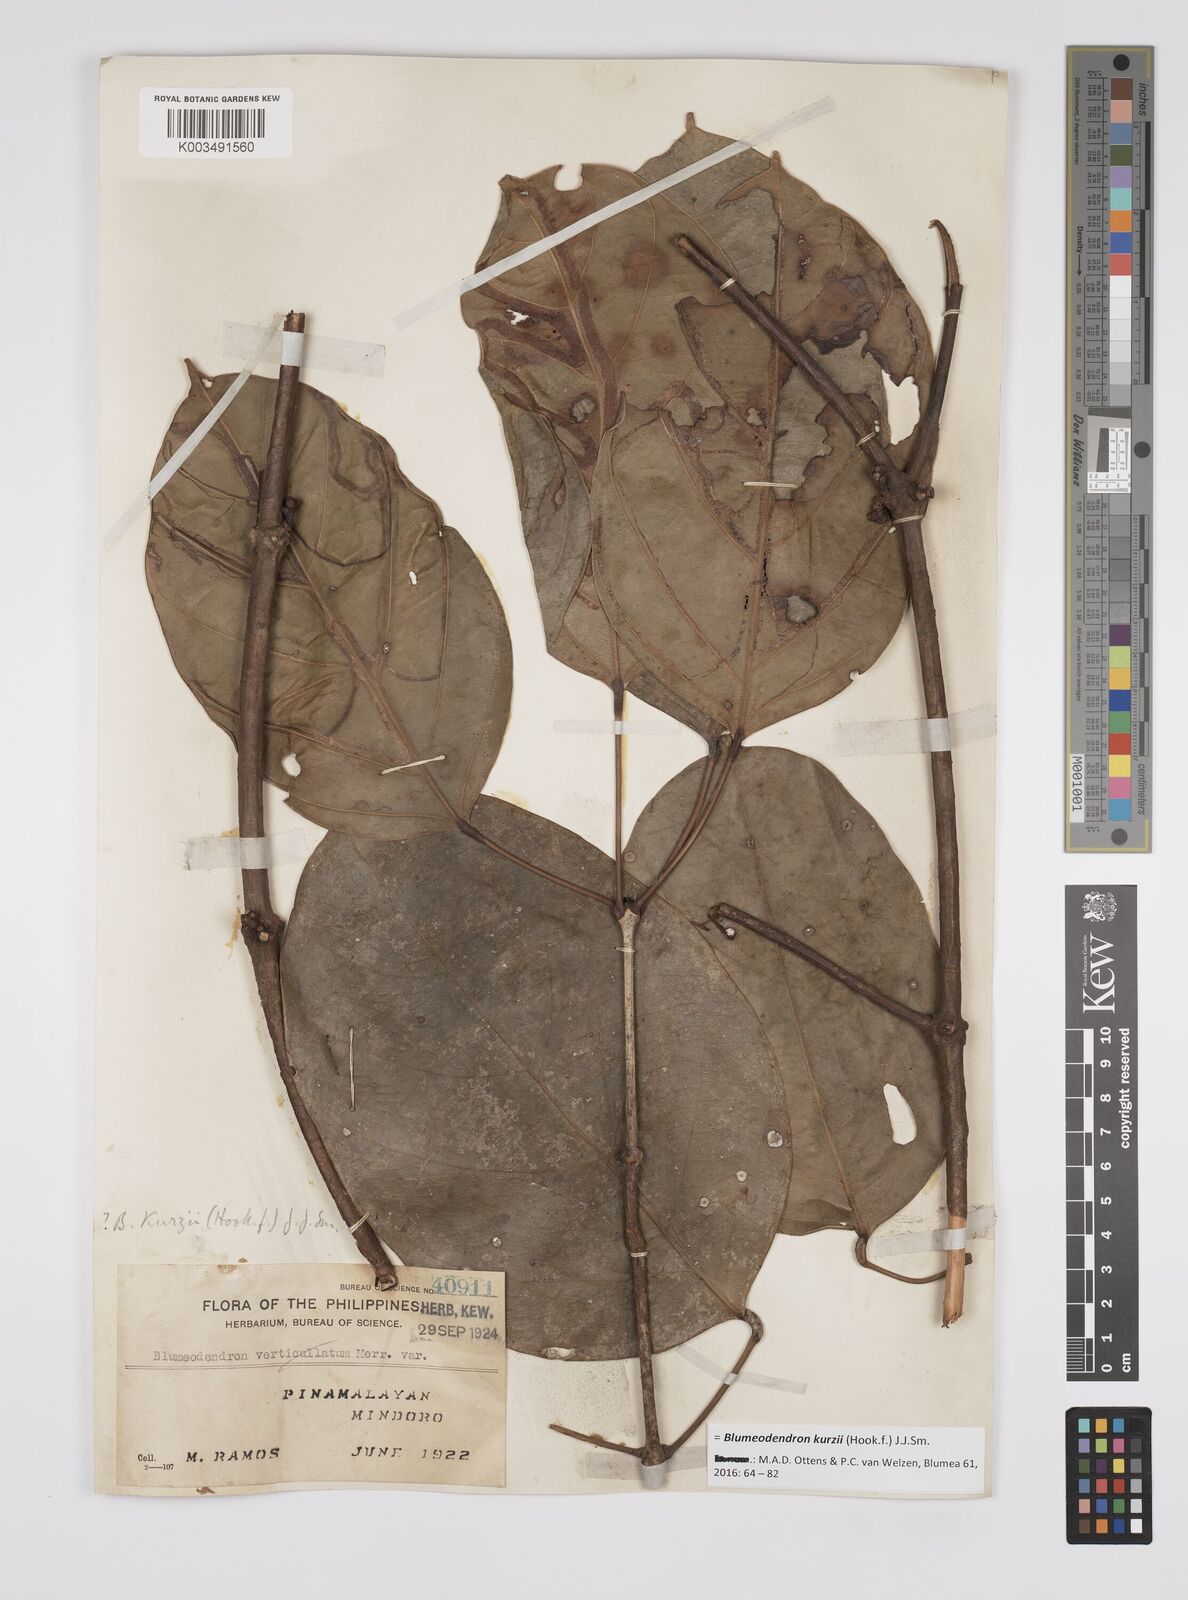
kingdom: Plantae
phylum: Tracheophyta
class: Magnoliopsida
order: Malpighiales
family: Euphorbiaceae
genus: Blumeodendron
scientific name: Blumeodendron kurzii
